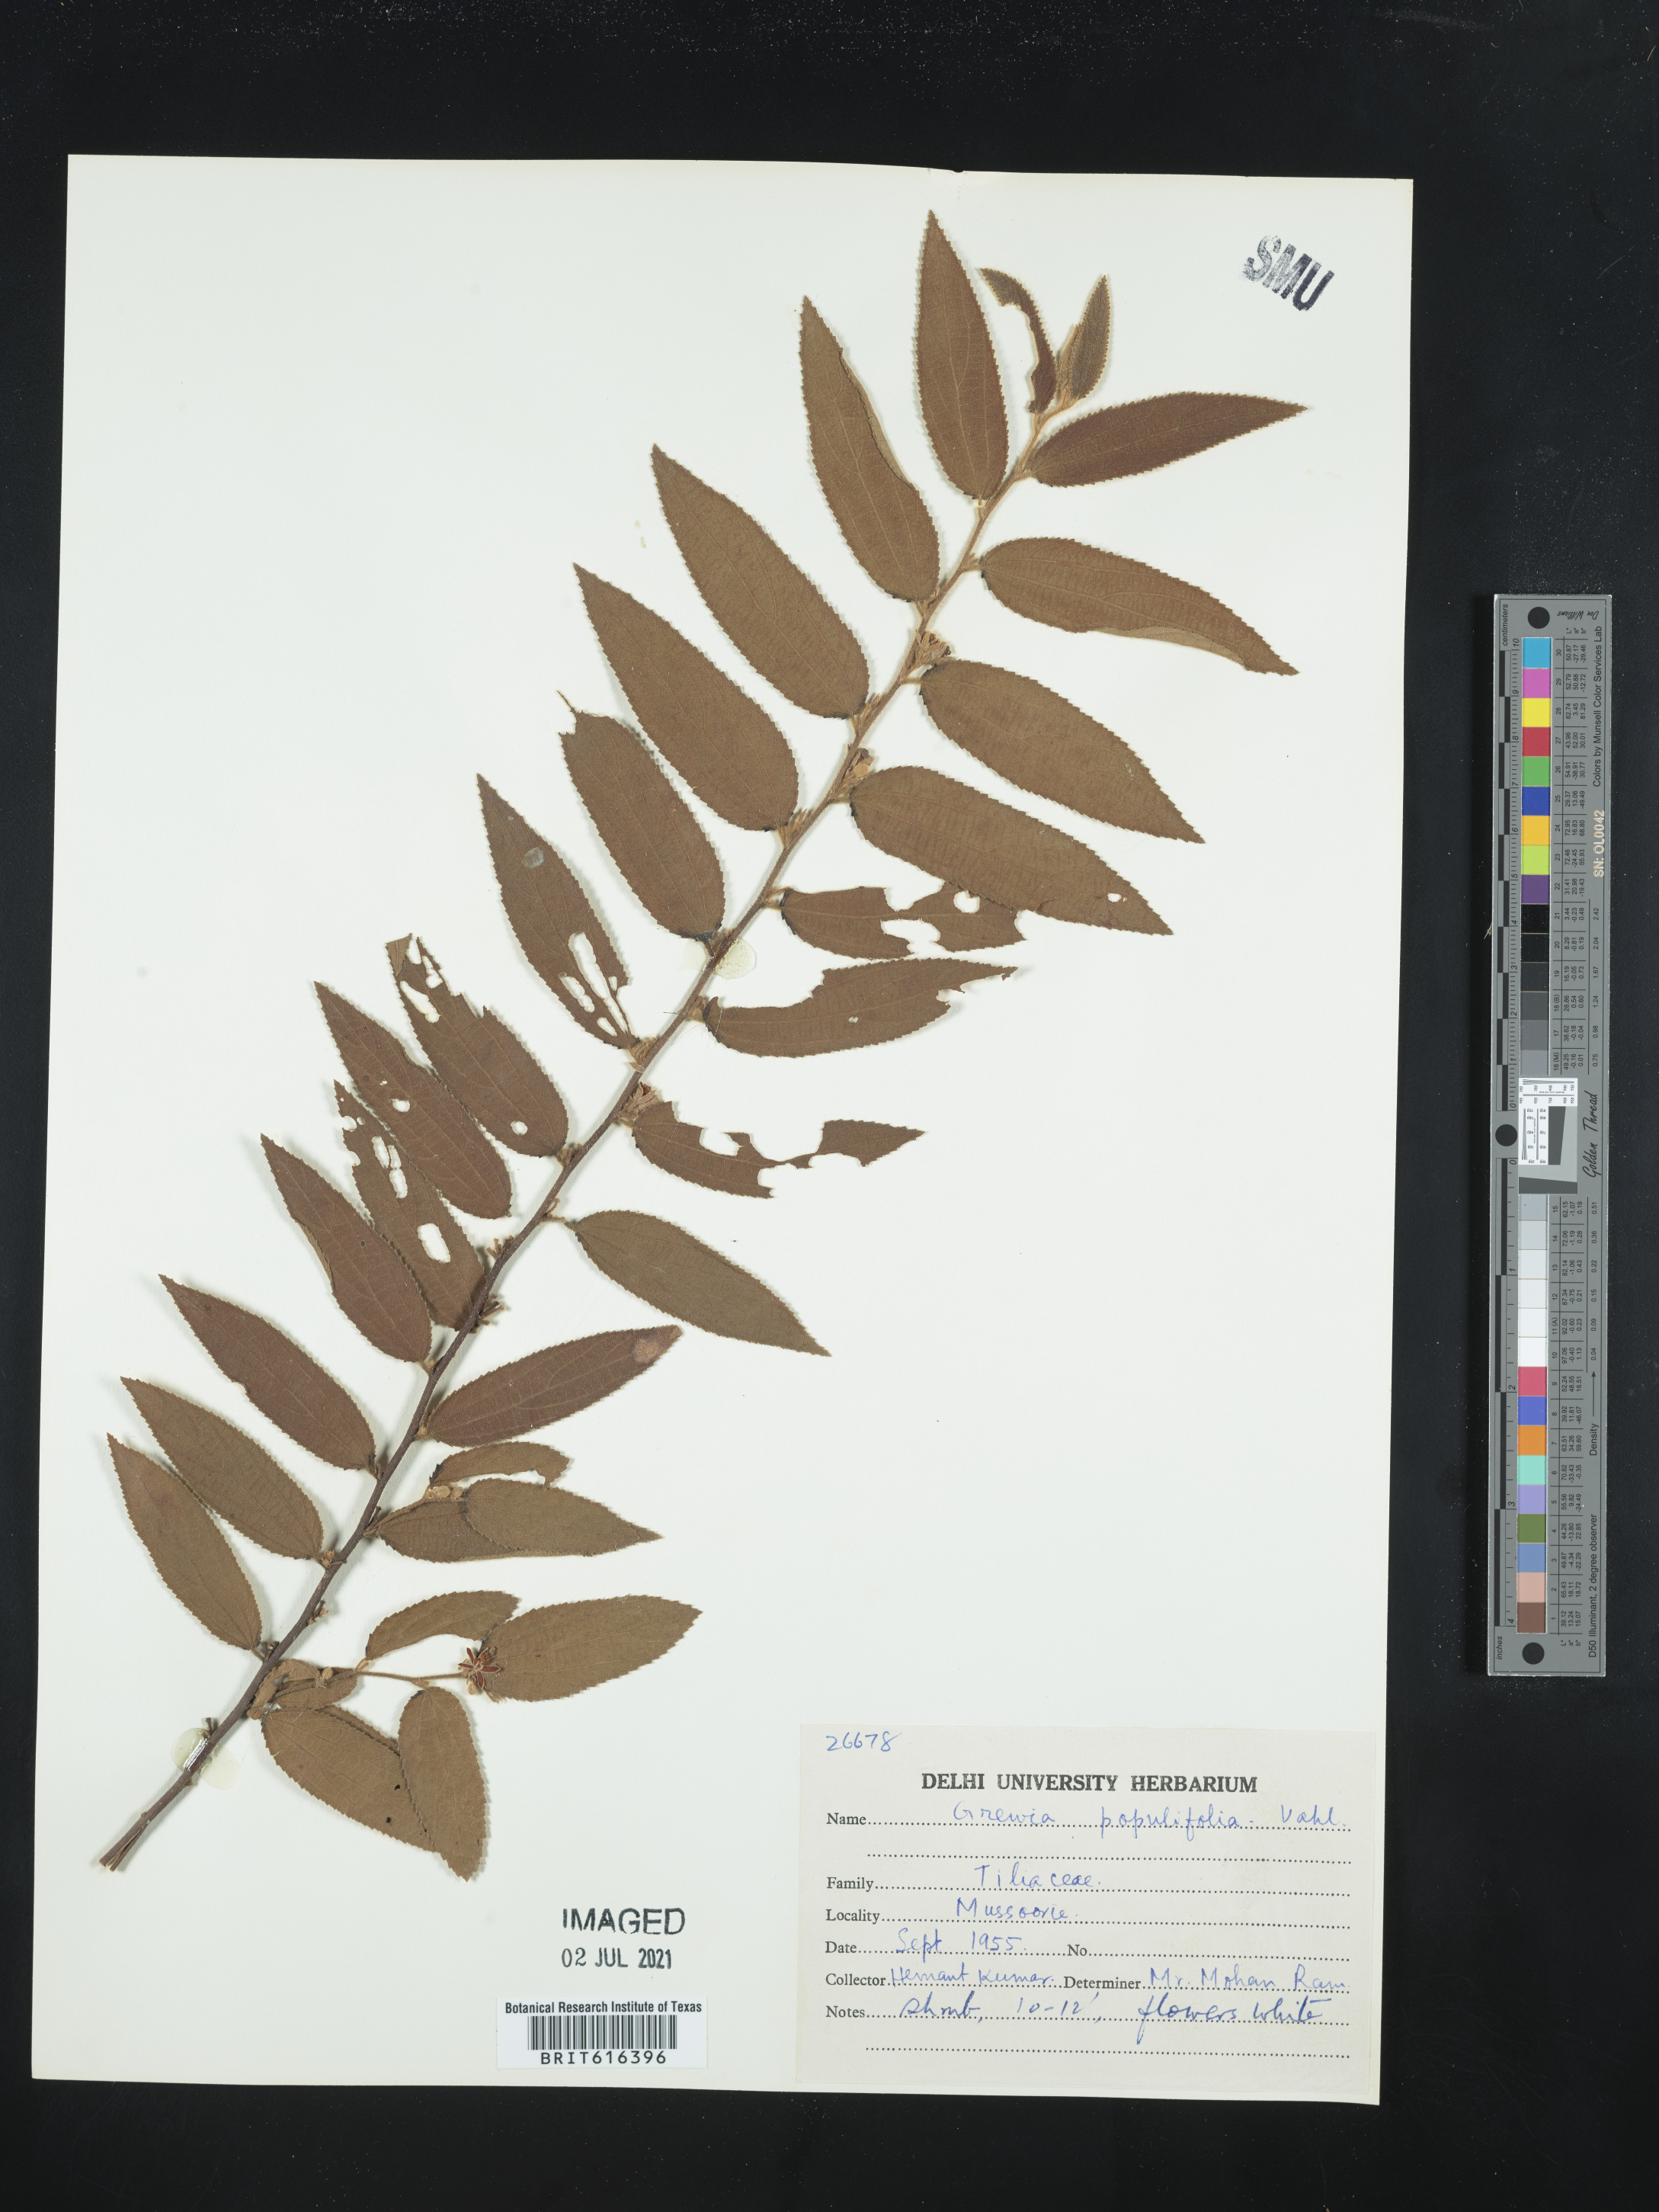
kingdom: Plantae
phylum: Tracheophyta
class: Magnoliopsida
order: Malvales
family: Malvaceae
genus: Grewia
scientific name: Grewia tenax
